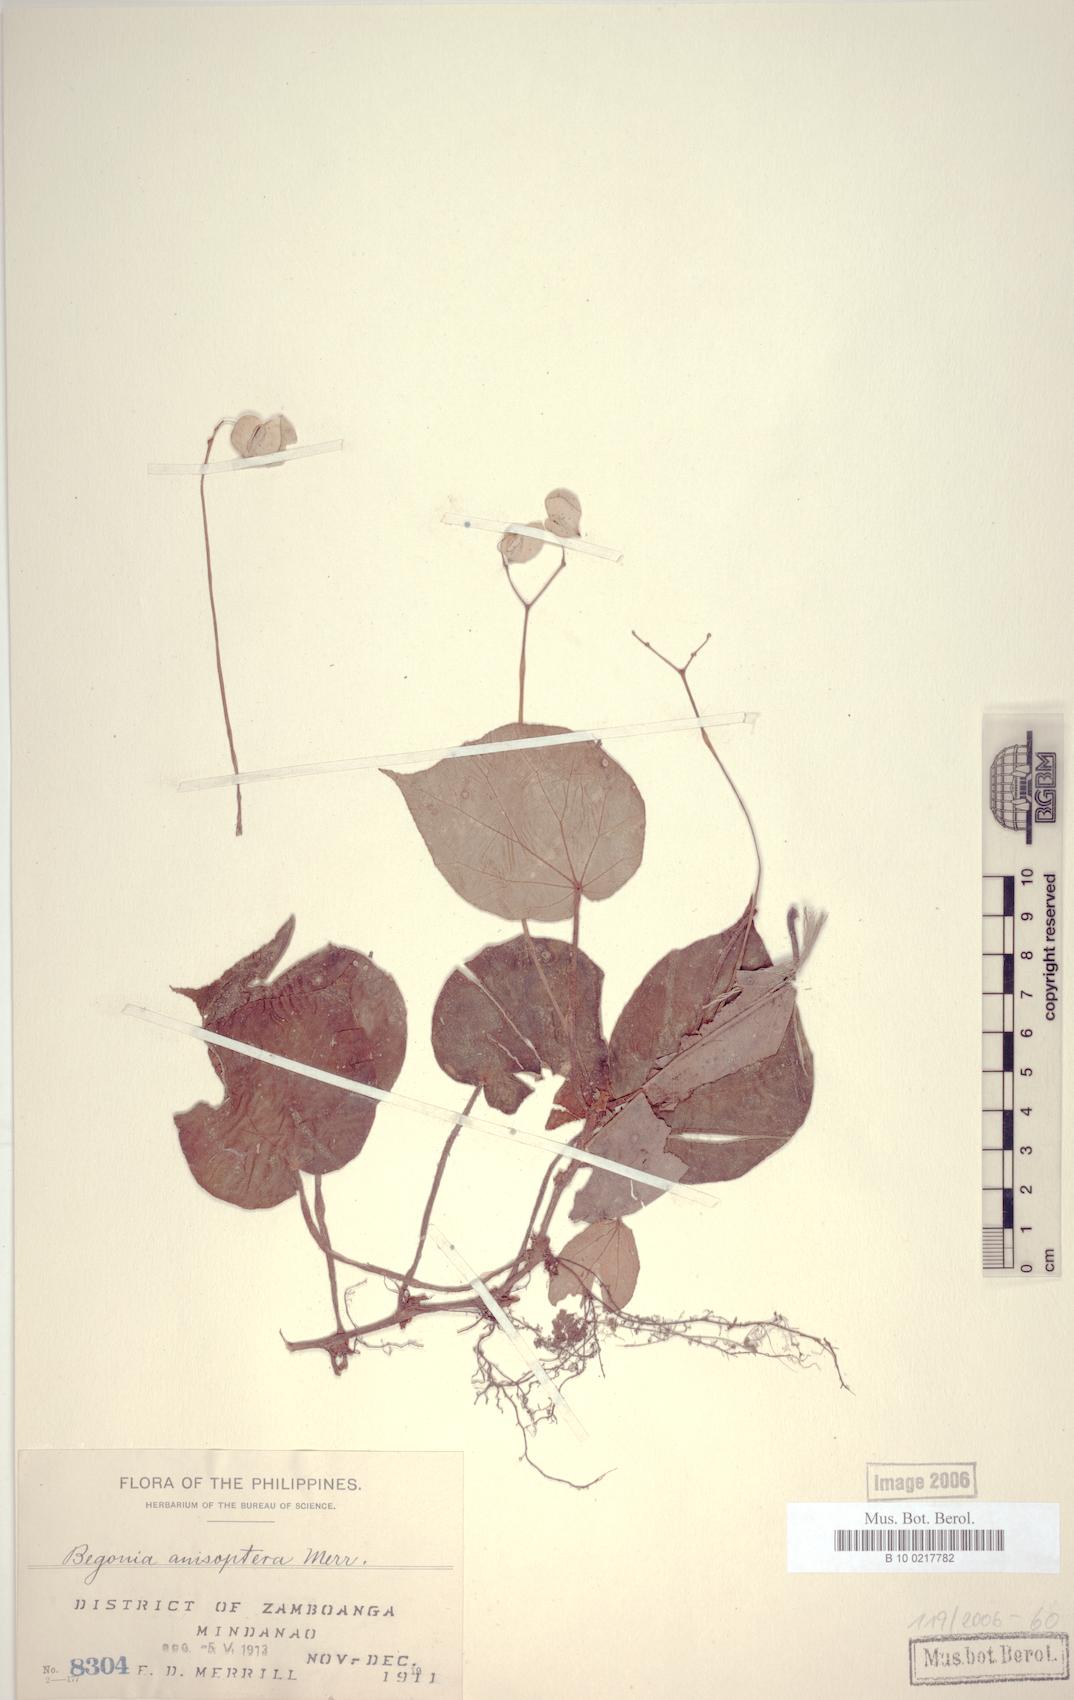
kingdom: Plantae
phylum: Tracheophyta
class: Magnoliopsida
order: Cucurbitales
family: Begoniaceae
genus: Begonia
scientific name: Begonia anisoptera
